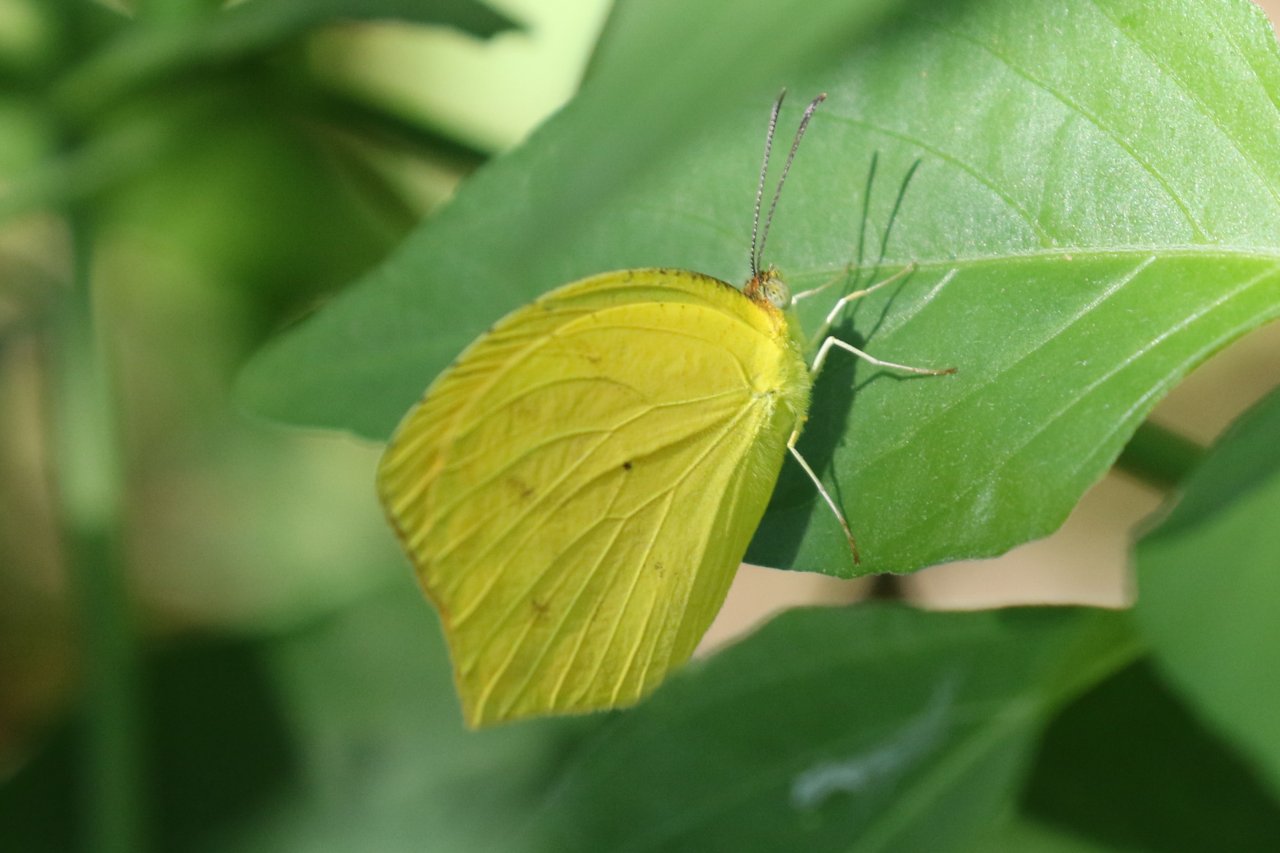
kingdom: Animalia
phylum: Arthropoda
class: Insecta
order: Lepidoptera
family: Pieridae
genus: Pyrisitia
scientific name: Pyrisitia proterpia
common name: Tailed Orange
